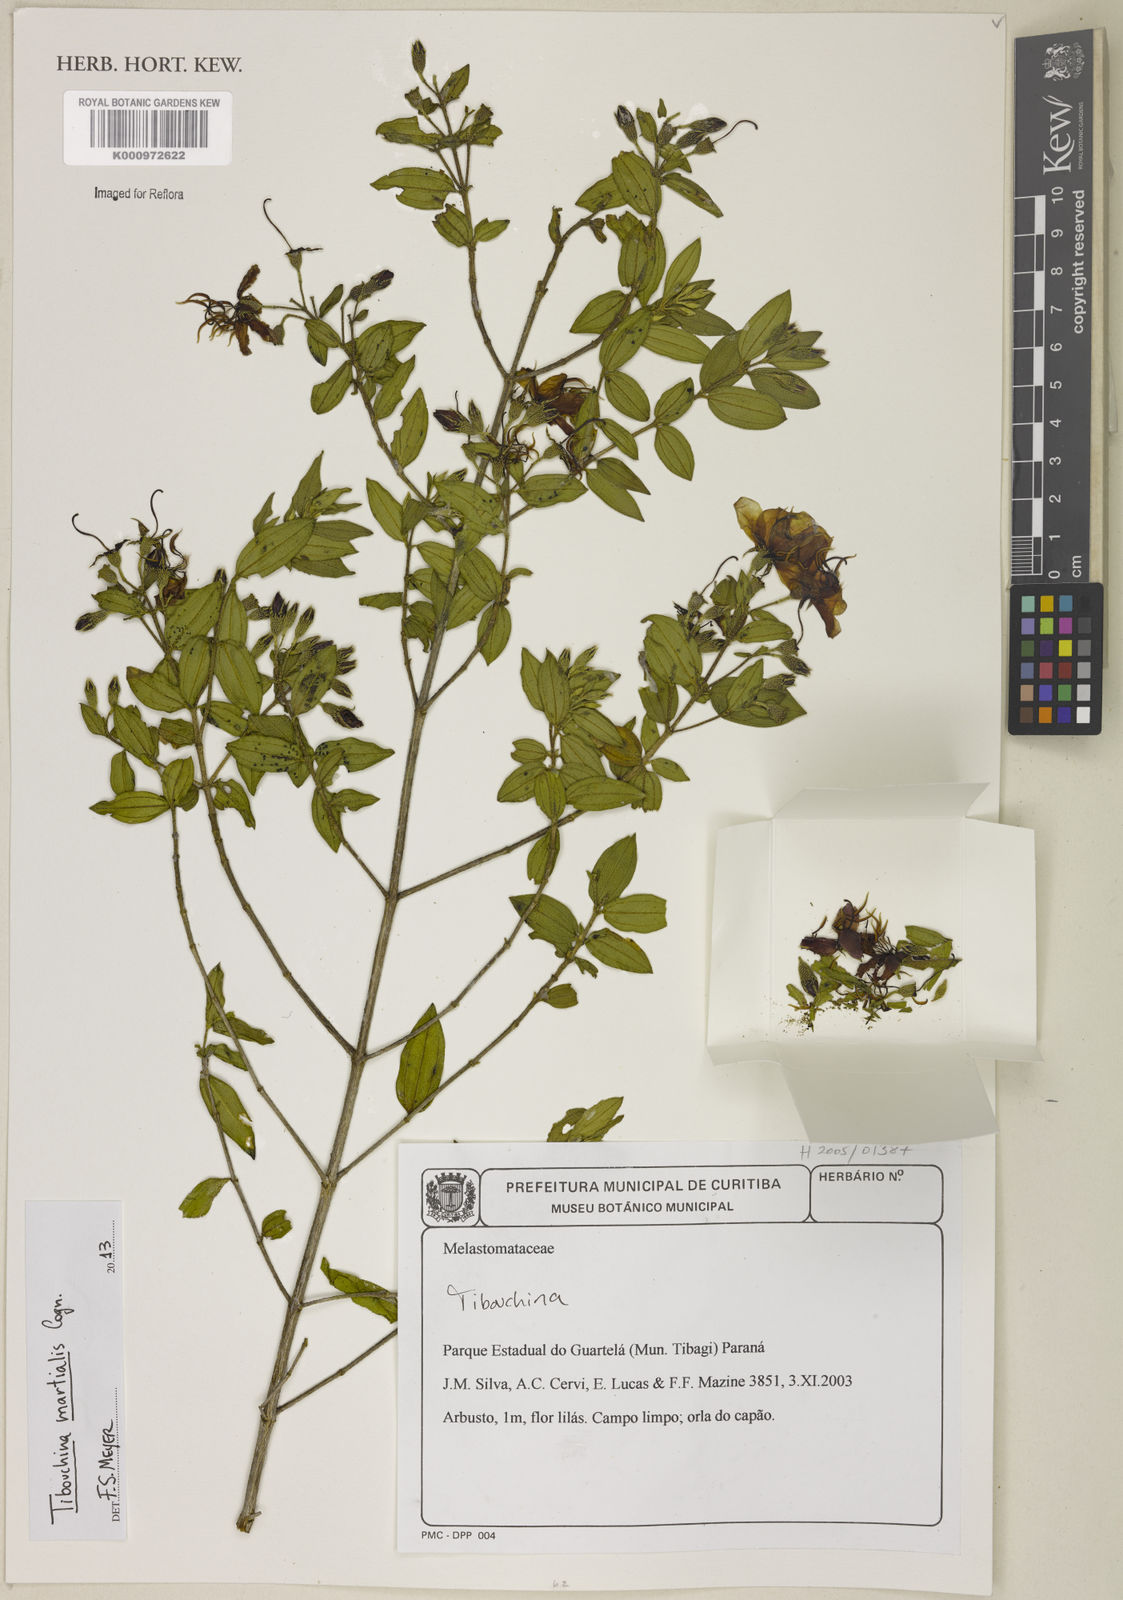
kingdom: Plantae
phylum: Tracheophyta
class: Magnoliopsida
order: Myrtales
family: Melastomataceae
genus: Pleroma
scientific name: Pleroma martiale
